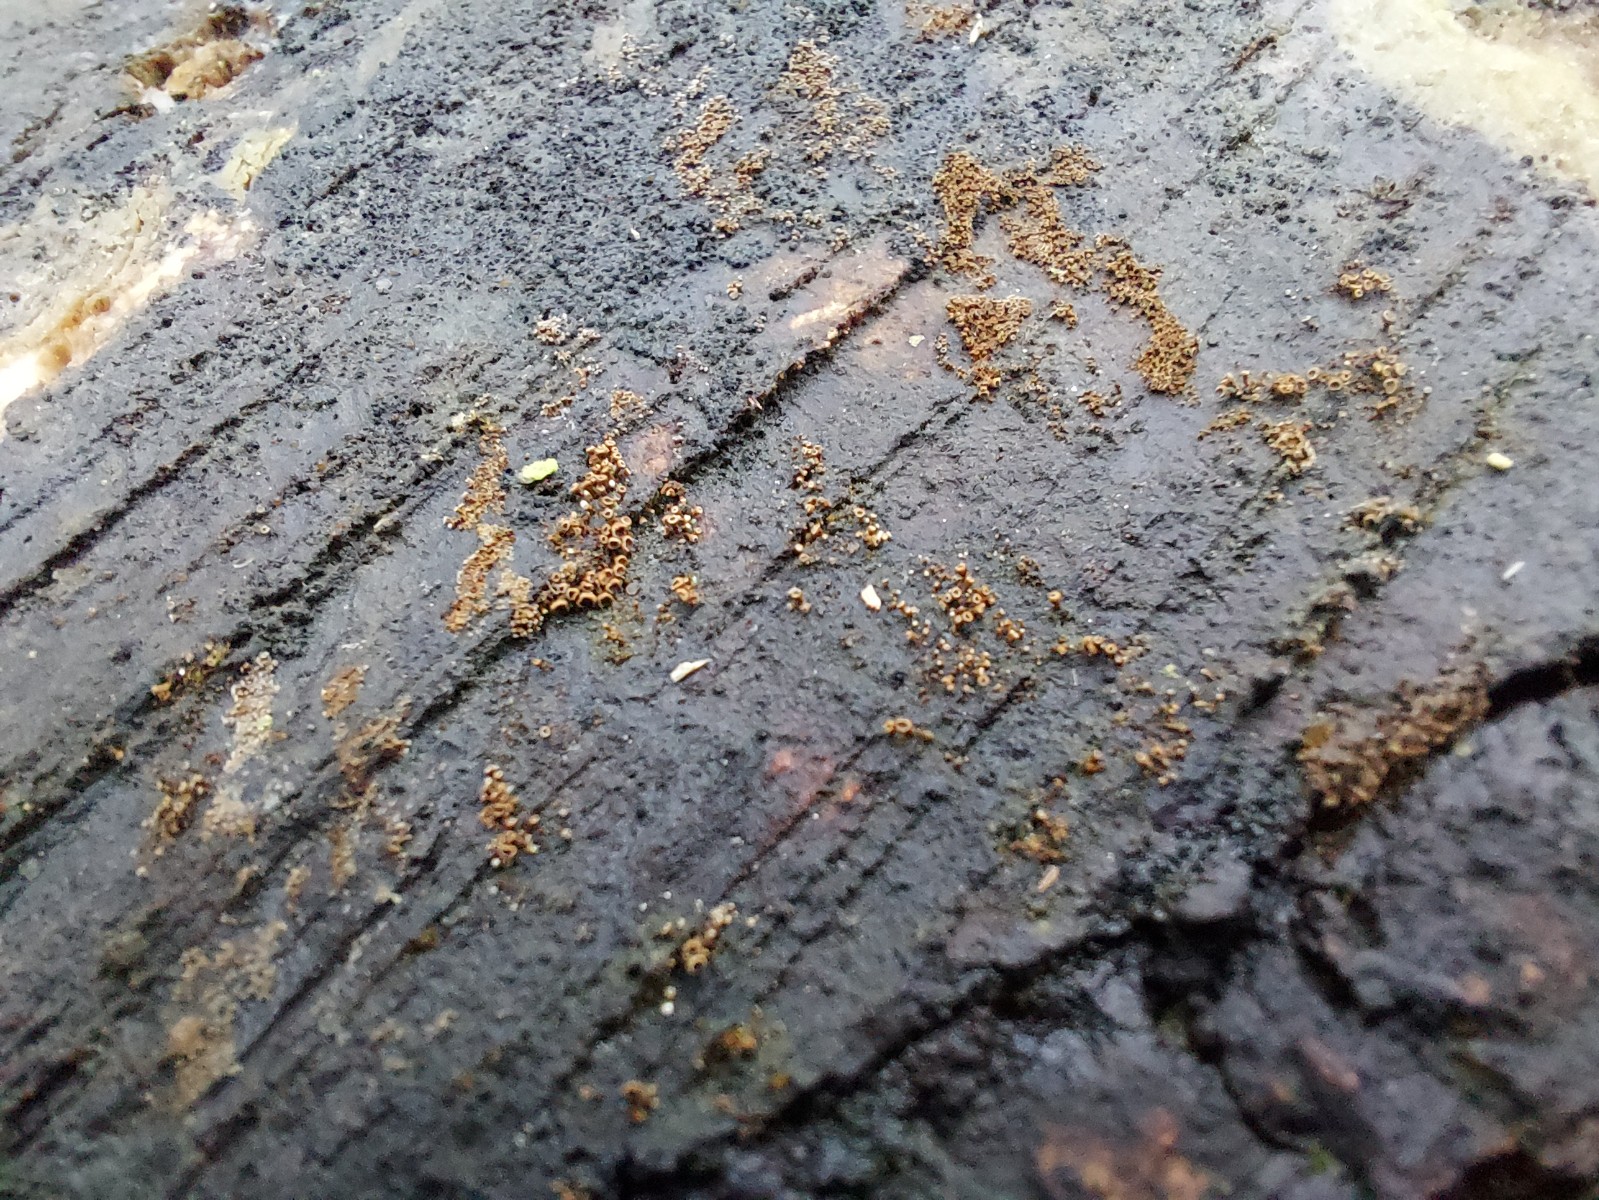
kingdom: Fungi
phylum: Basidiomycota
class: Agaricomycetes
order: Agaricales
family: Niaceae
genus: Merismodes
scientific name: Merismodes anomala
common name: almindelig læderskål
